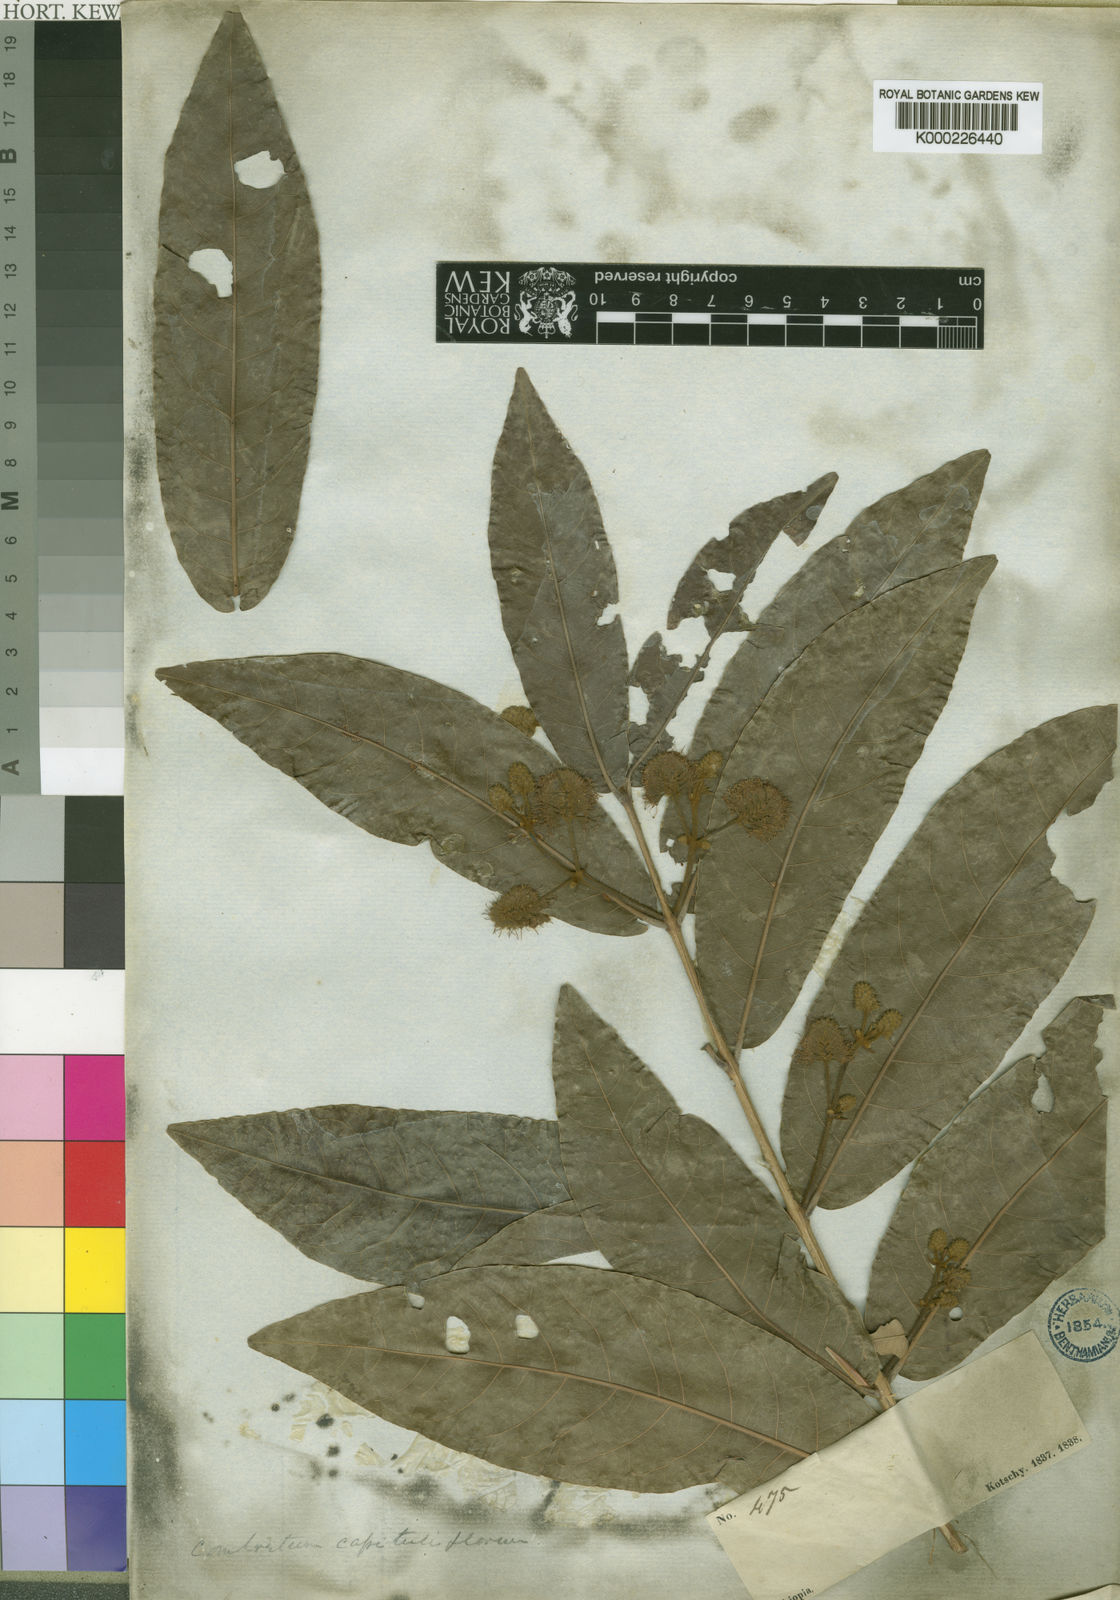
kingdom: Plantae
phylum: Tracheophyta
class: Magnoliopsida
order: Myrtales
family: Combretaceae
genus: Combretum
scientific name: Combretum capituliflorum
